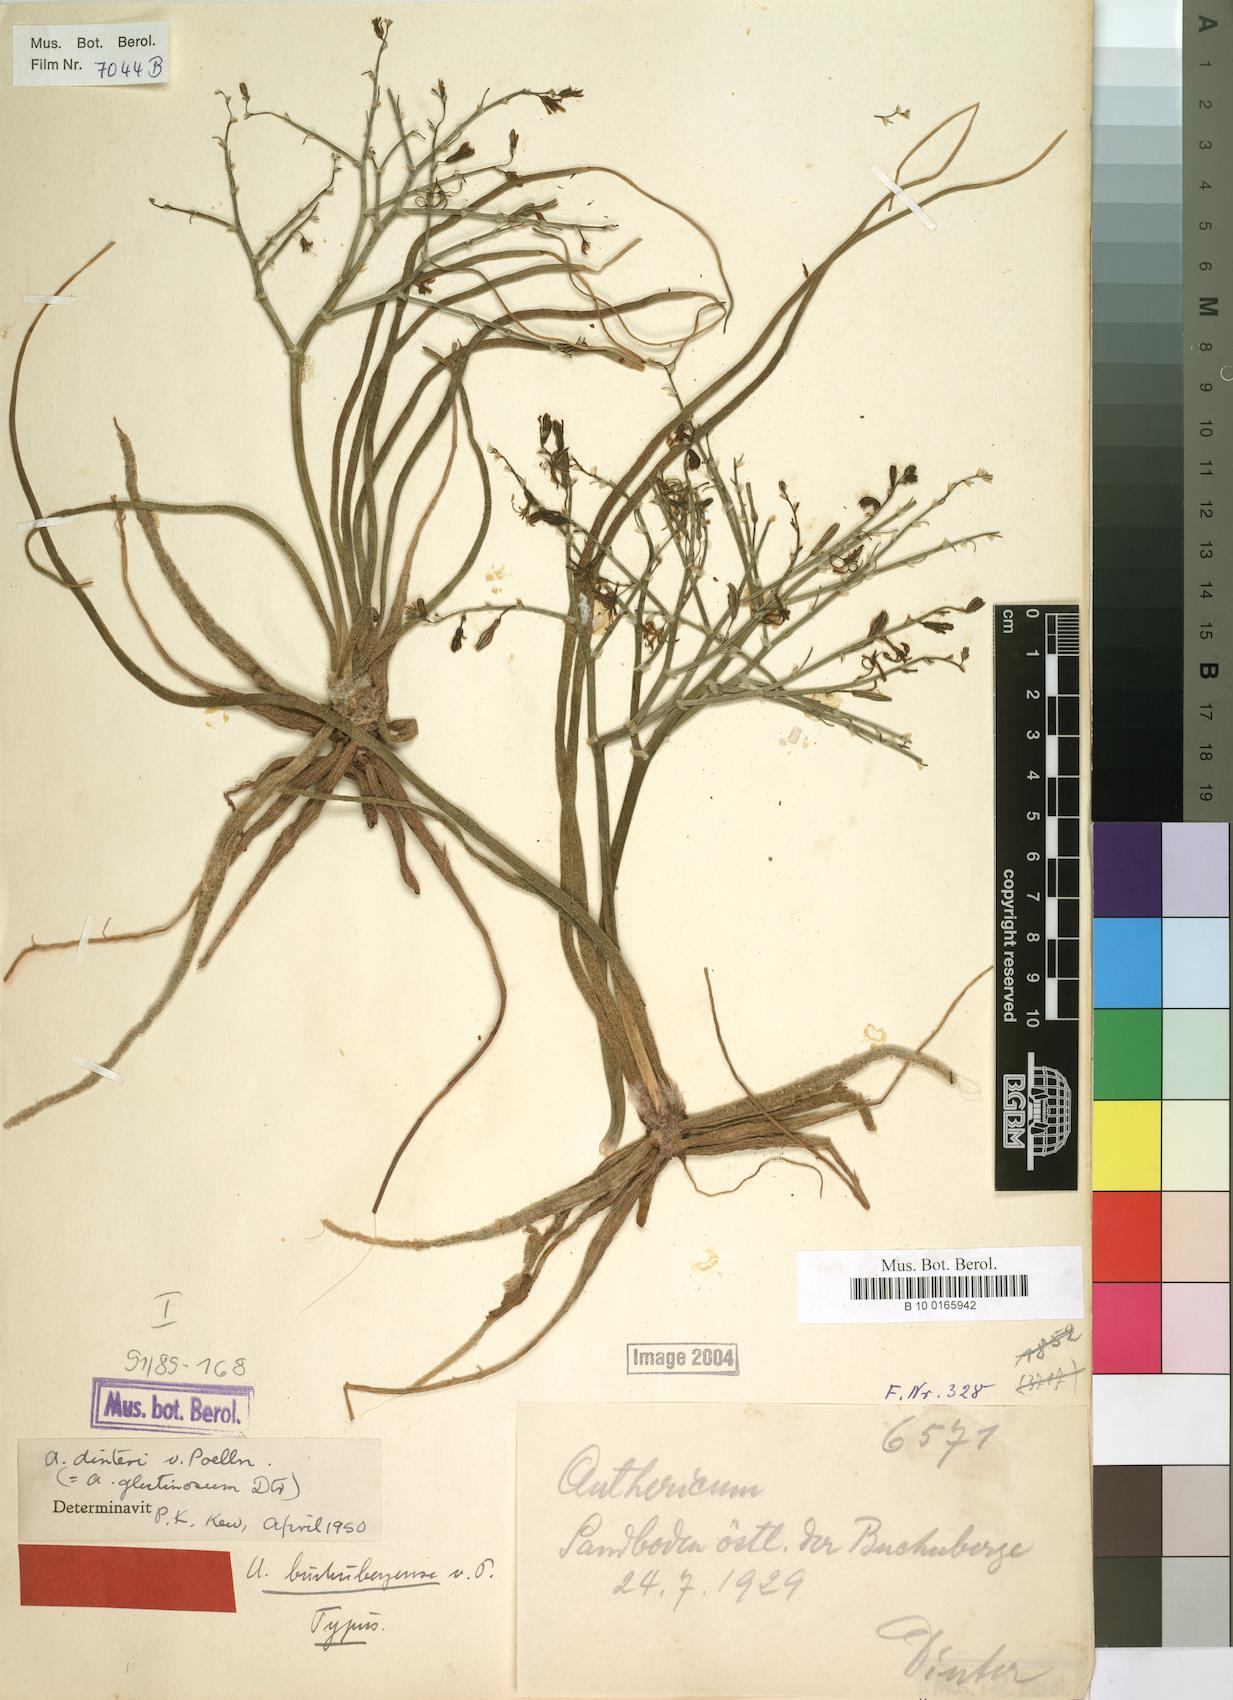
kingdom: Plantae
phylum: Tracheophyta
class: Liliopsida
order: Asparagales
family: Asphodelaceae
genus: Trachyandra
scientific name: Trachyandra laxa
